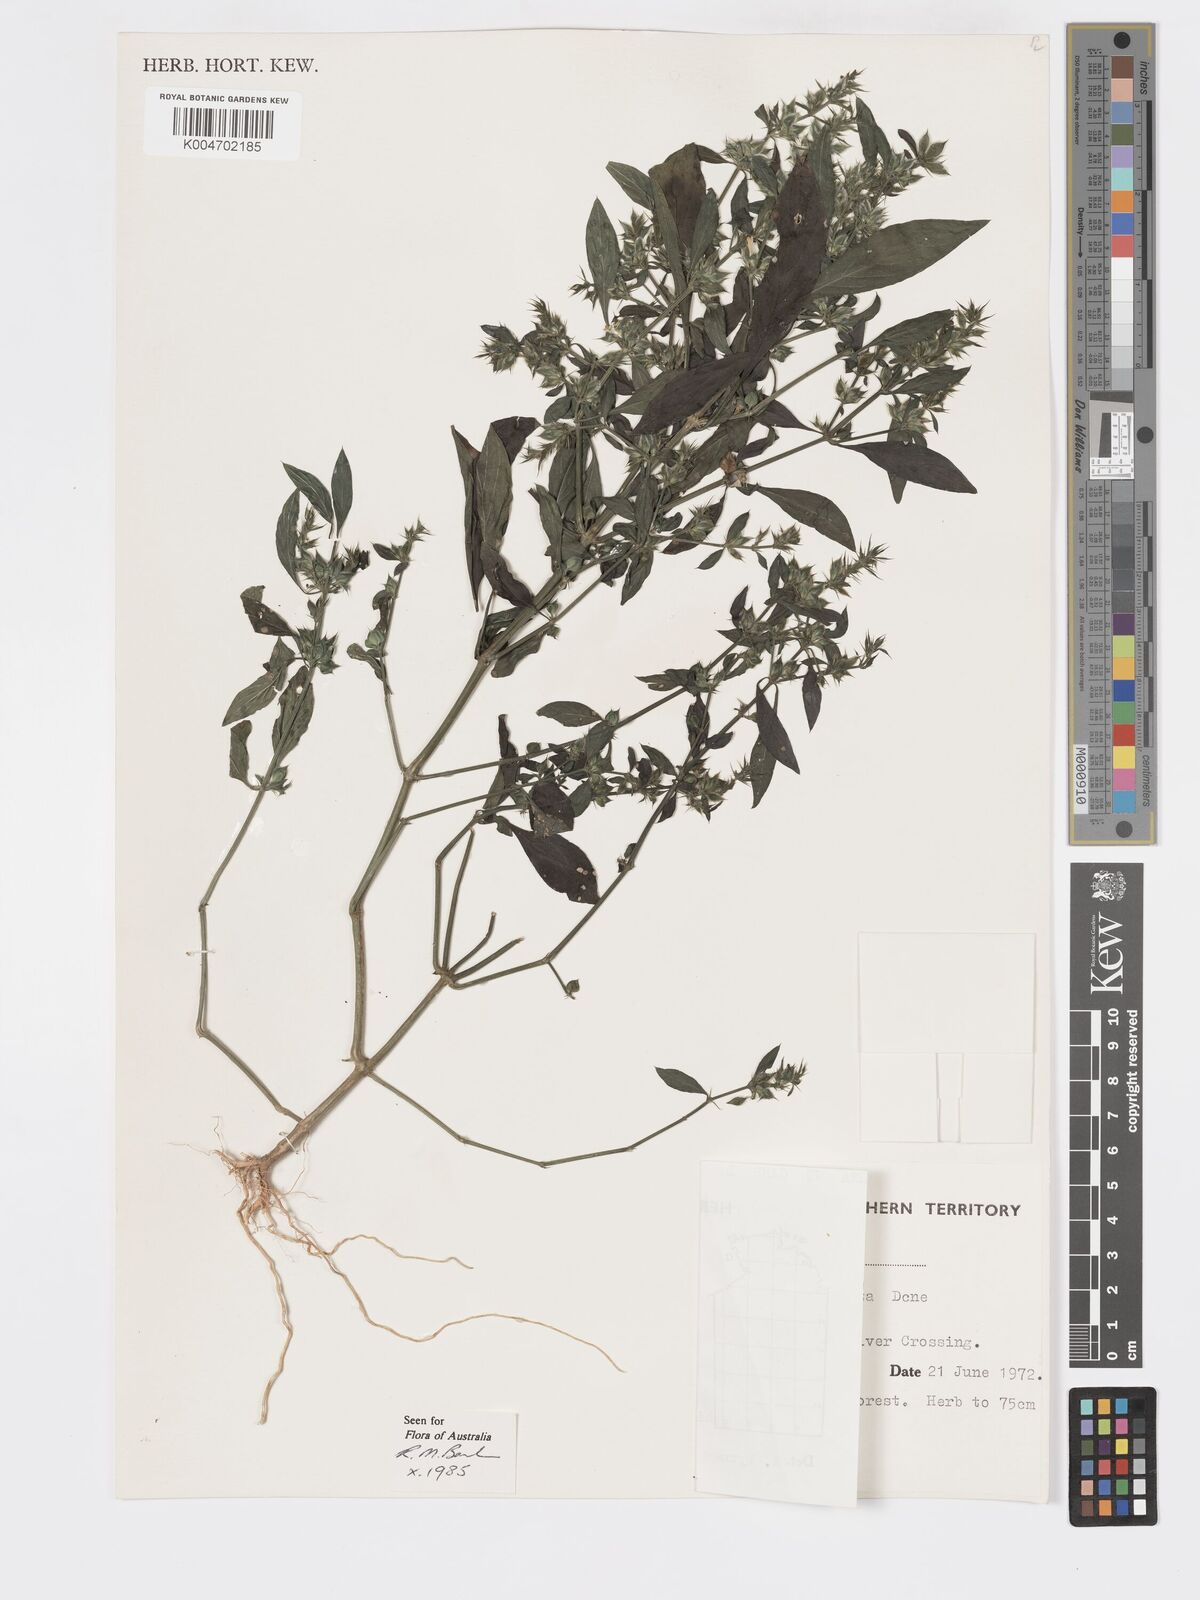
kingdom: Plantae
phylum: Tracheophyta
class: Magnoliopsida
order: Lamiales
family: Acanthaceae
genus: Dicliptera
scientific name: Dicliptera
